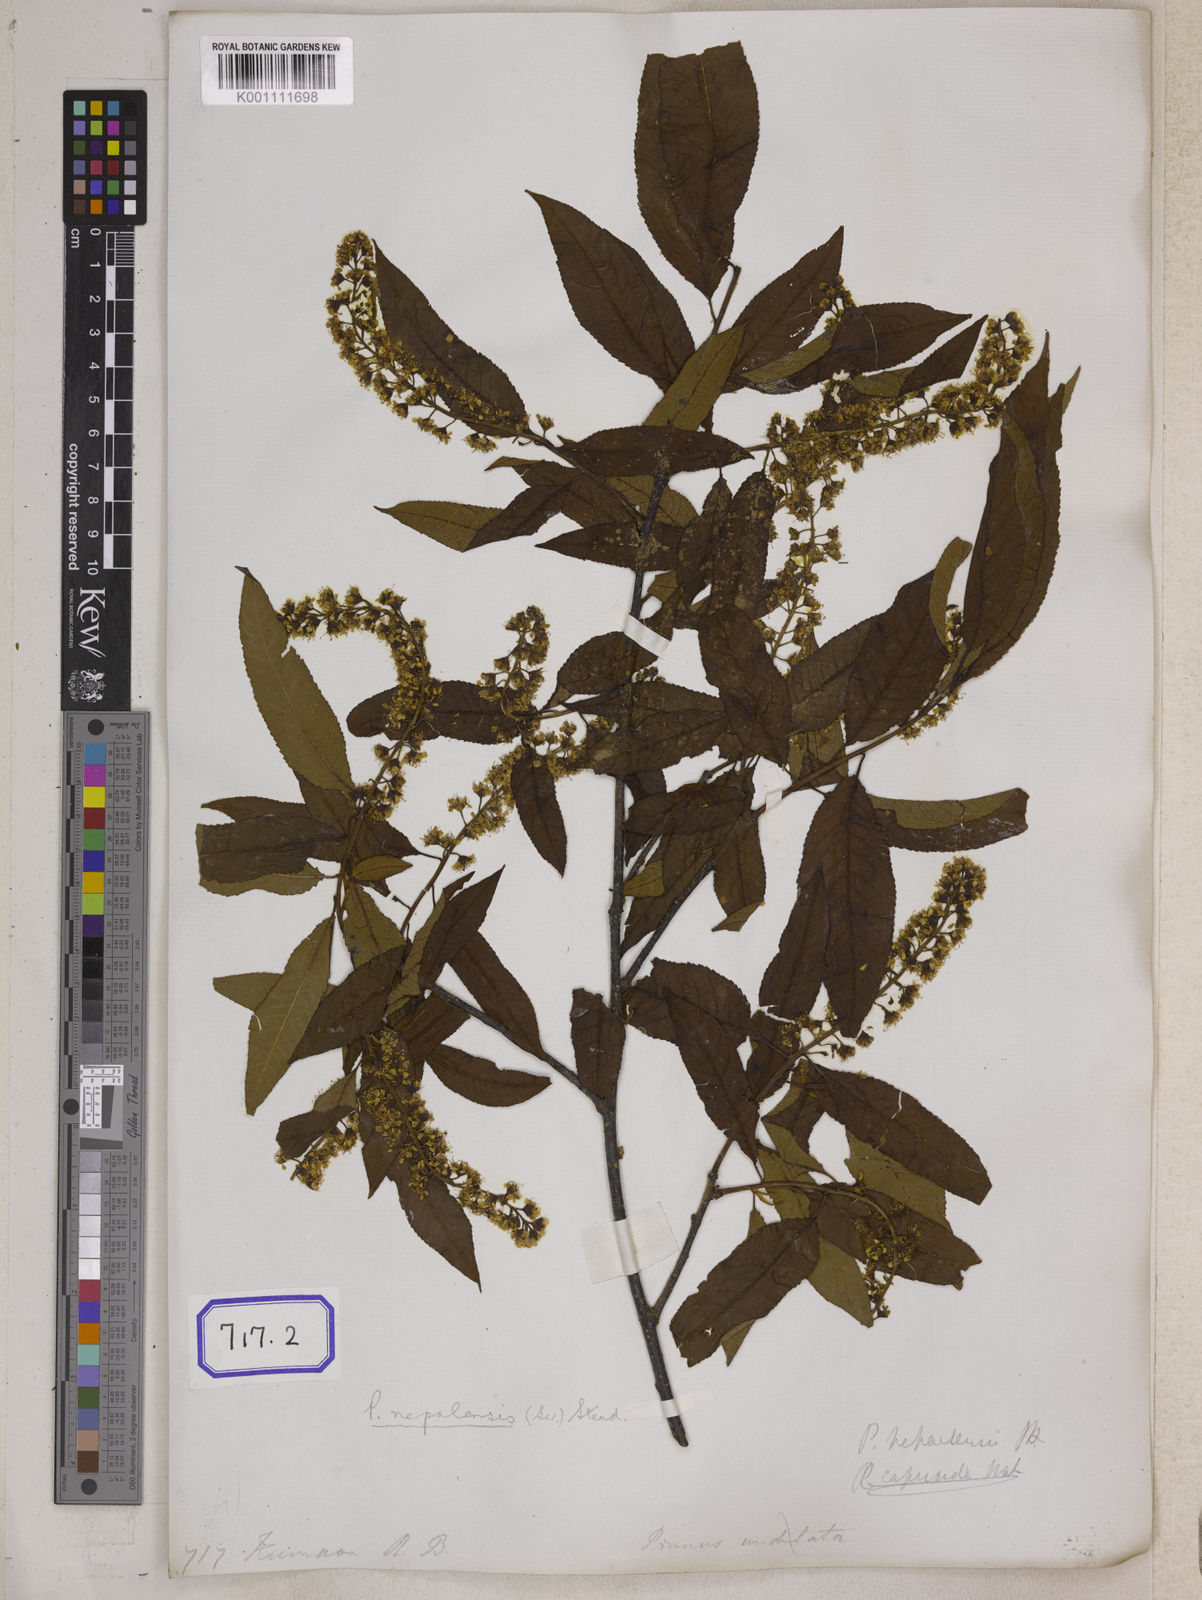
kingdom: Plantae
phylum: Tracheophyta
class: Magnoliopsida
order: Rosales
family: Rosaceae
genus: Prunus
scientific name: Prunus napaulensis
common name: Khasia cherry
